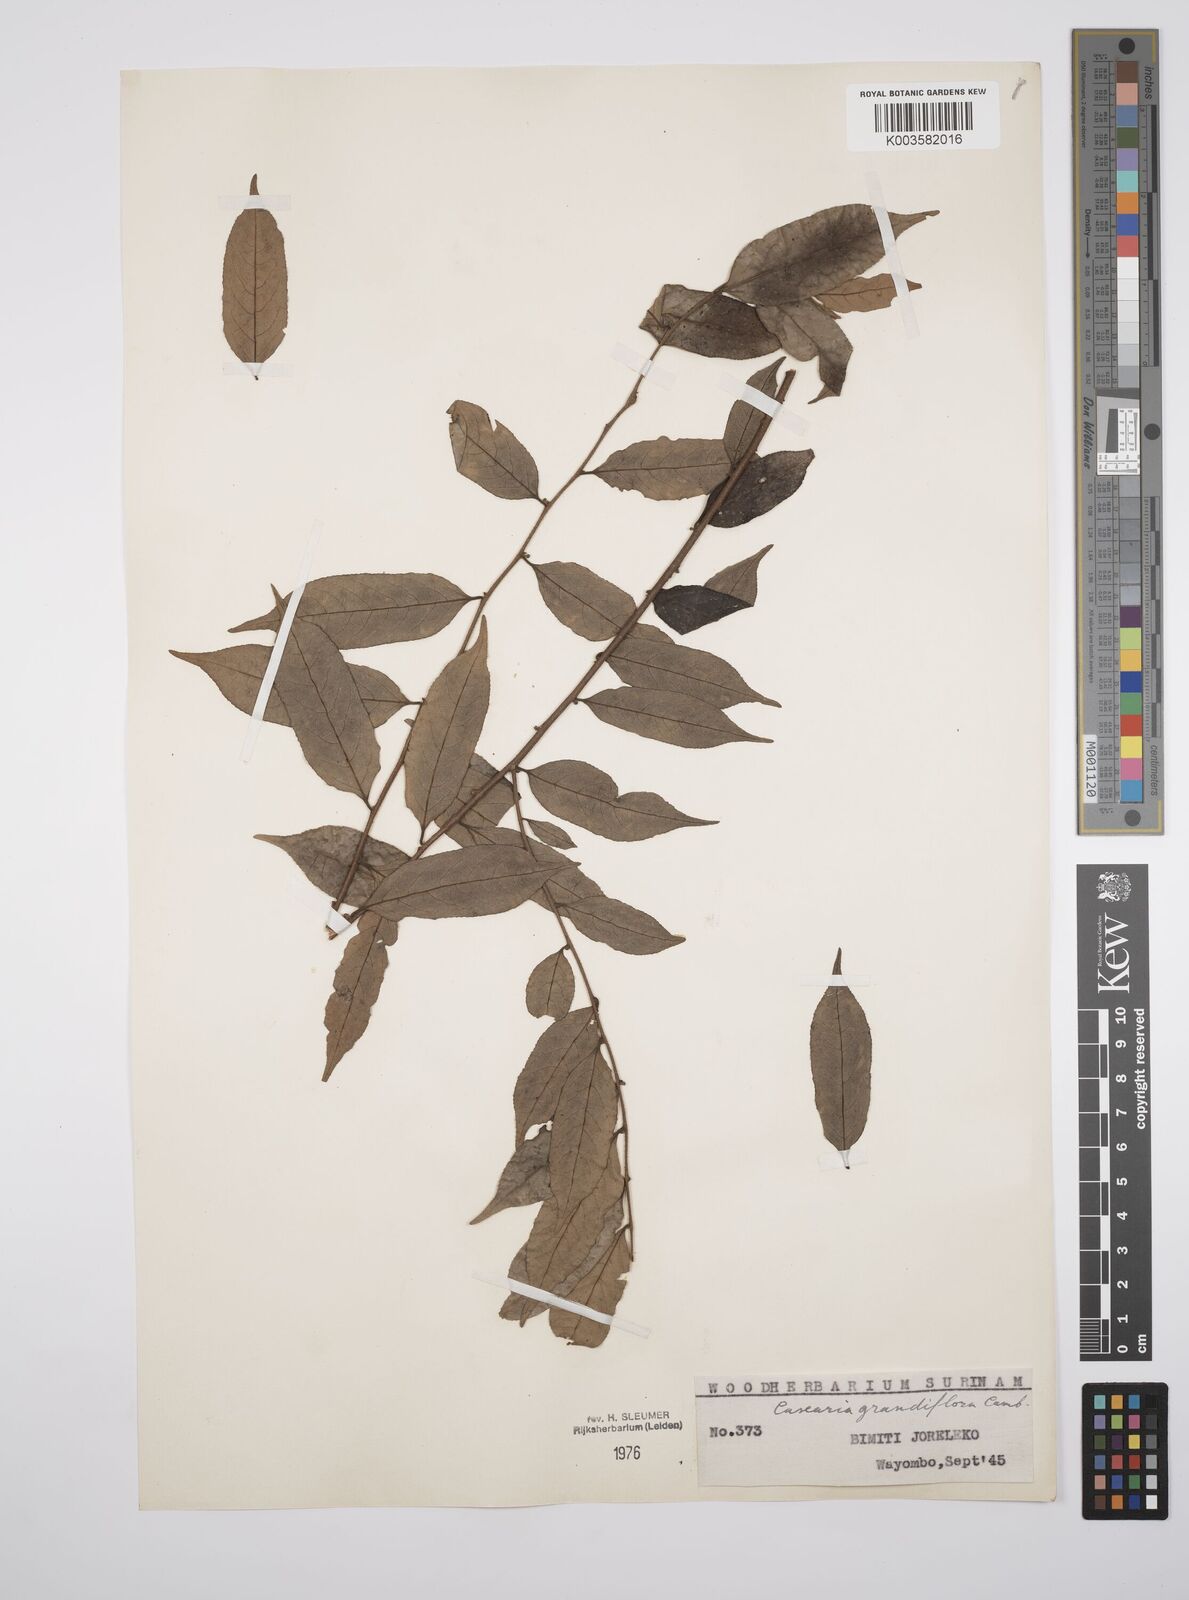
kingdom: Plantae
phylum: Tracheophyta
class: Magnoliopsida
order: Malpighiales
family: Salicaceae
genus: Casearia
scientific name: Casearia grandiflora
